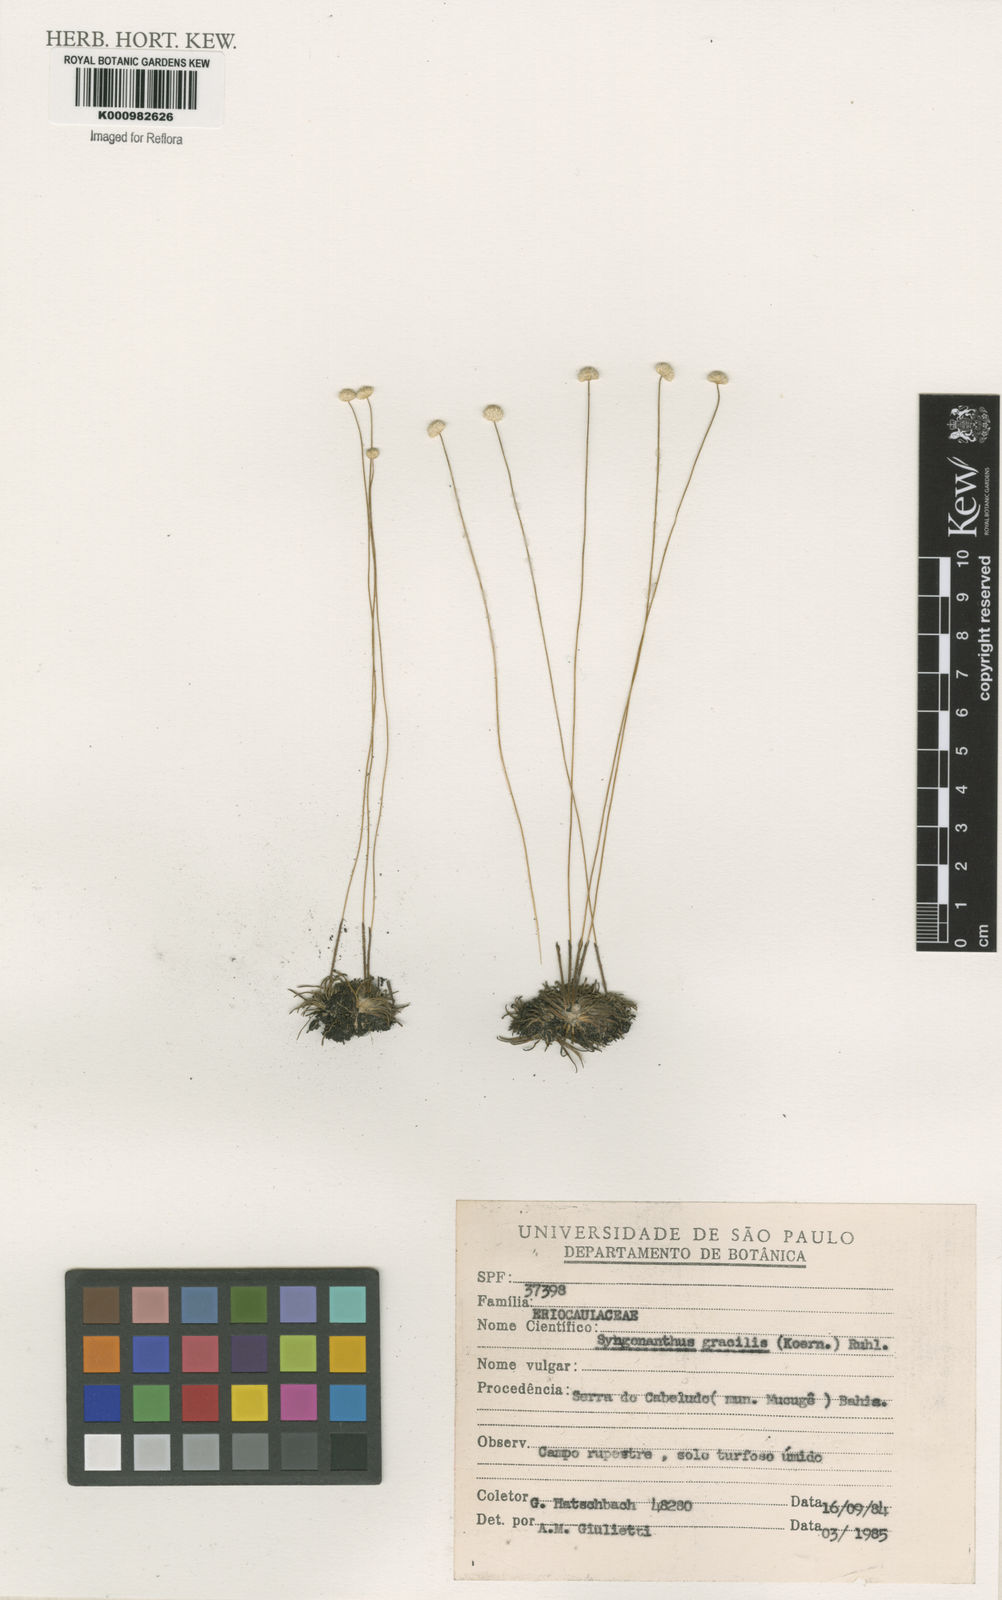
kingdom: Plantae
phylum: Tracheophyta
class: Liliopsida
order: Poales
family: Eriocaulaceae
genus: Syngonanthus
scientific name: Syngonanthus gracilis
